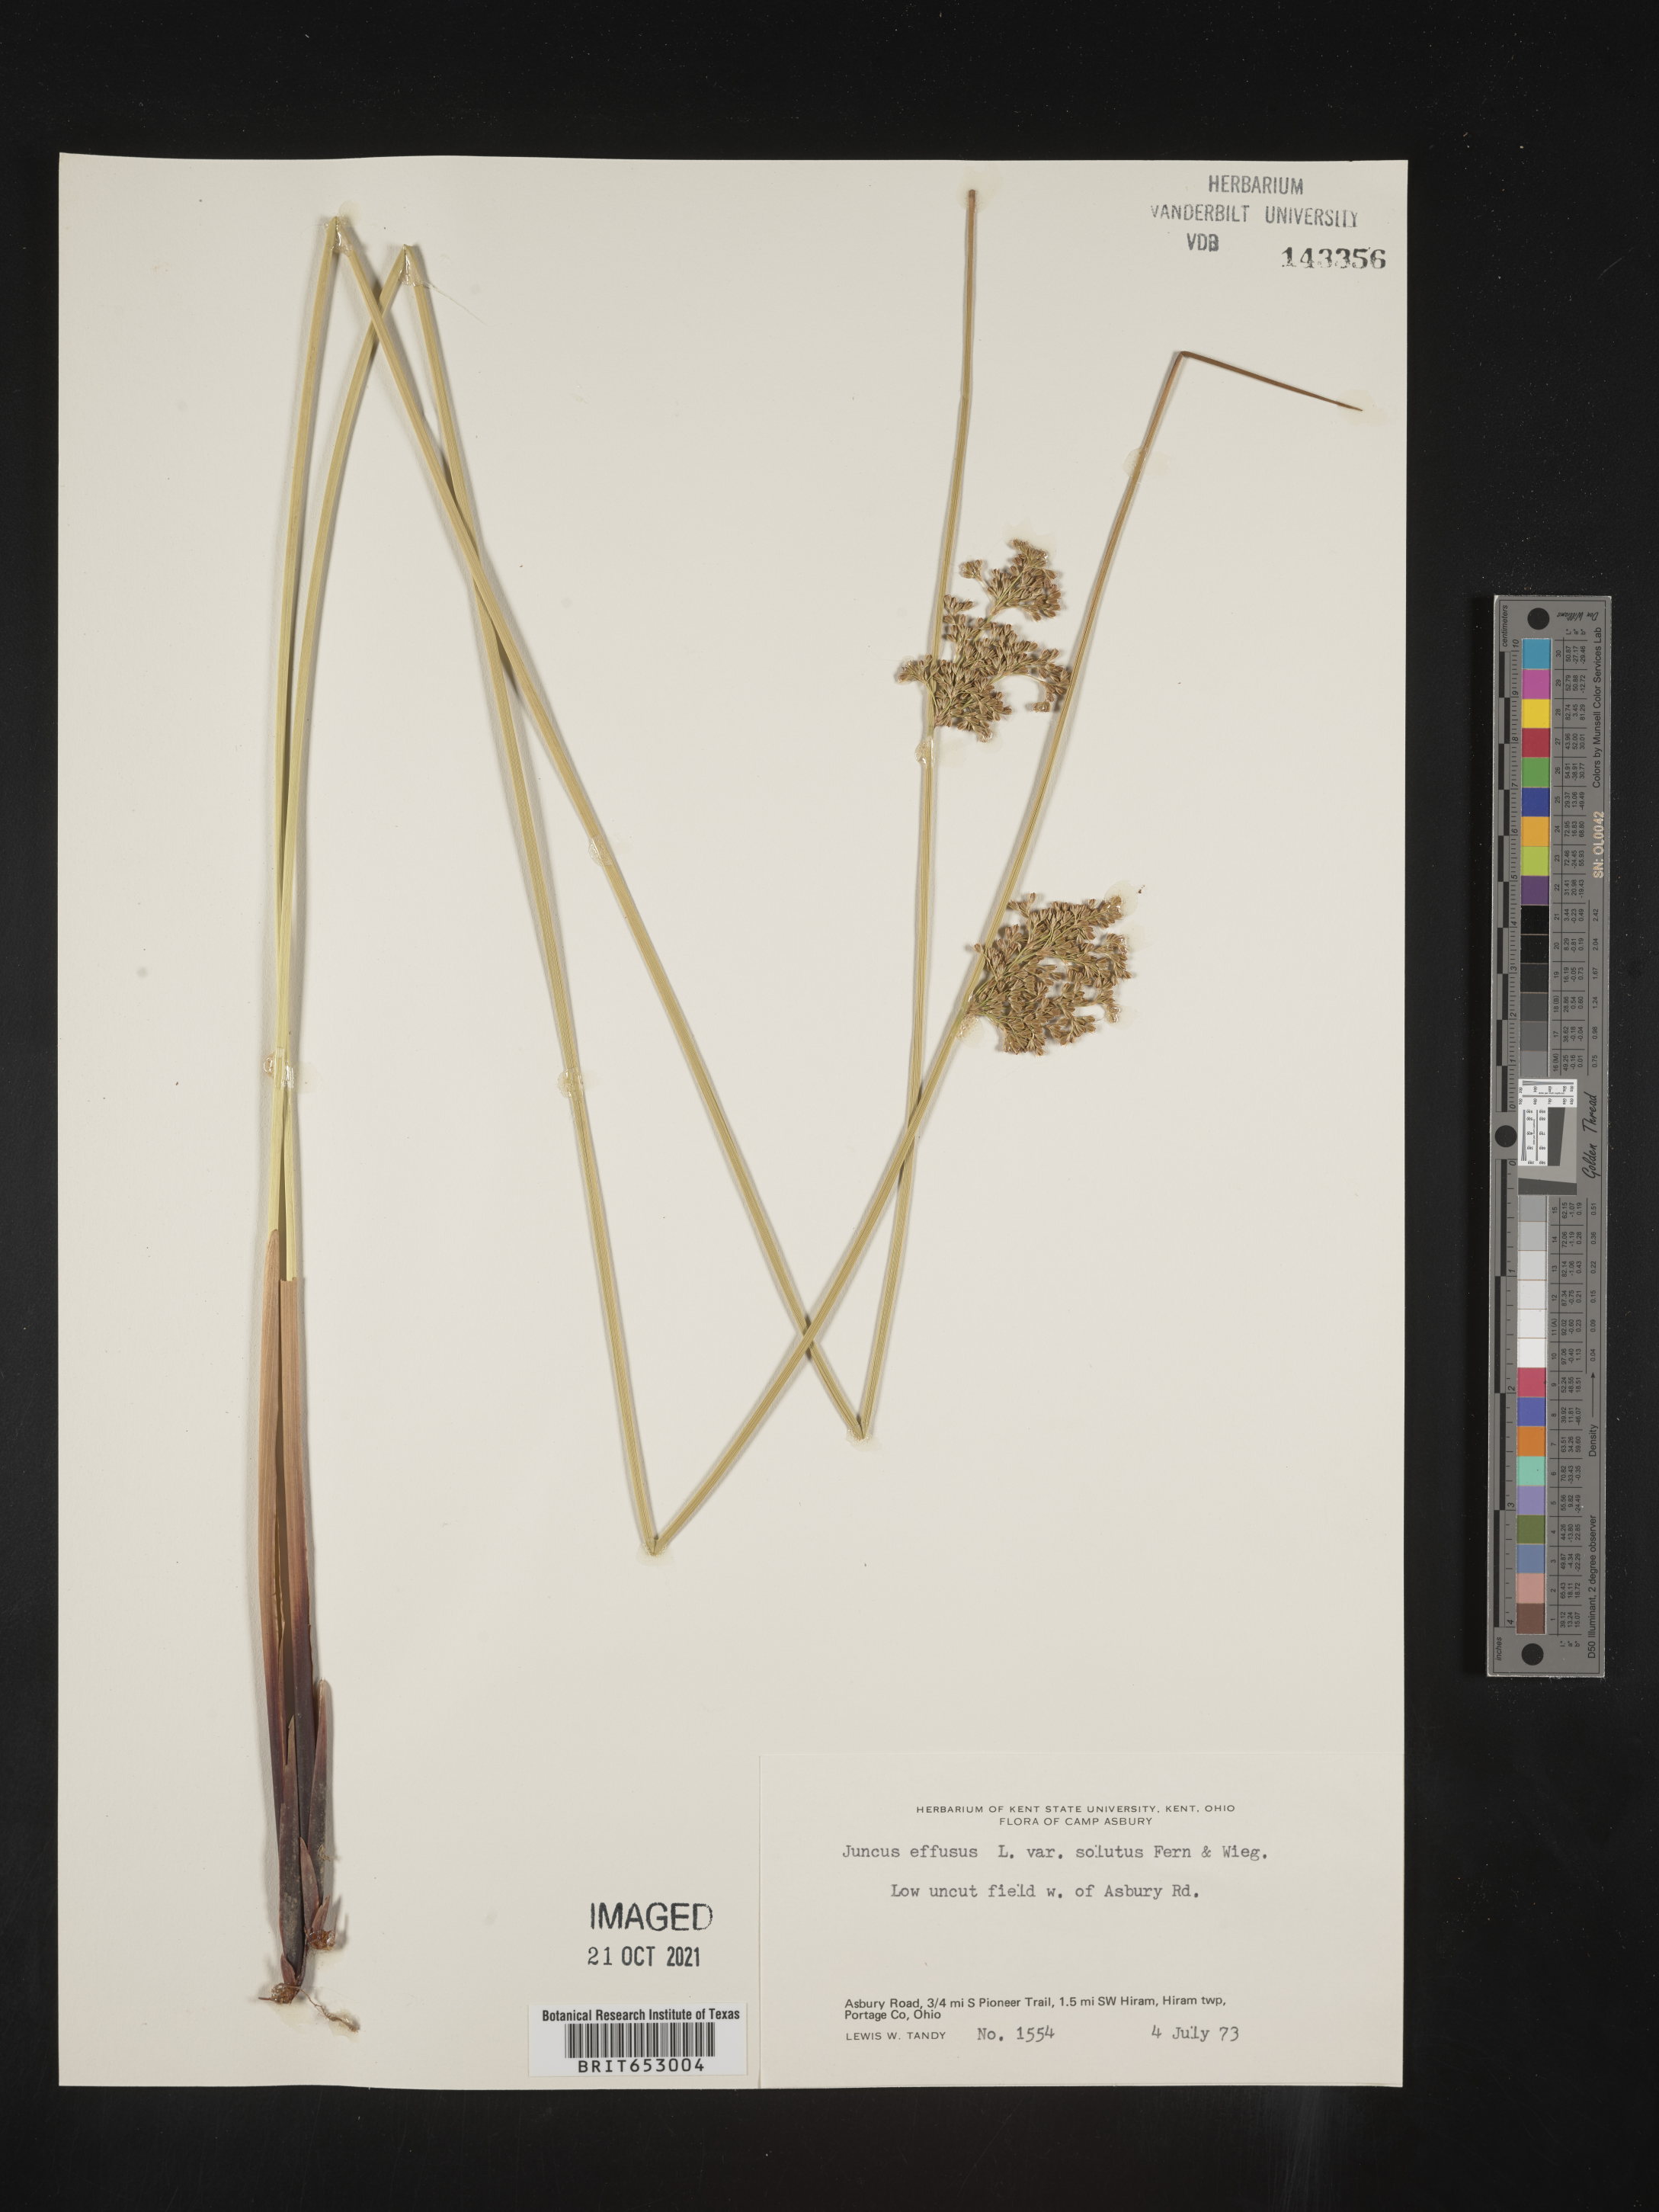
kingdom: Plantae
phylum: Tracheophyta
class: Liliopsida
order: Poales
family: Juncaceae
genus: Juncus
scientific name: Juncus effusus
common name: Soft rush
